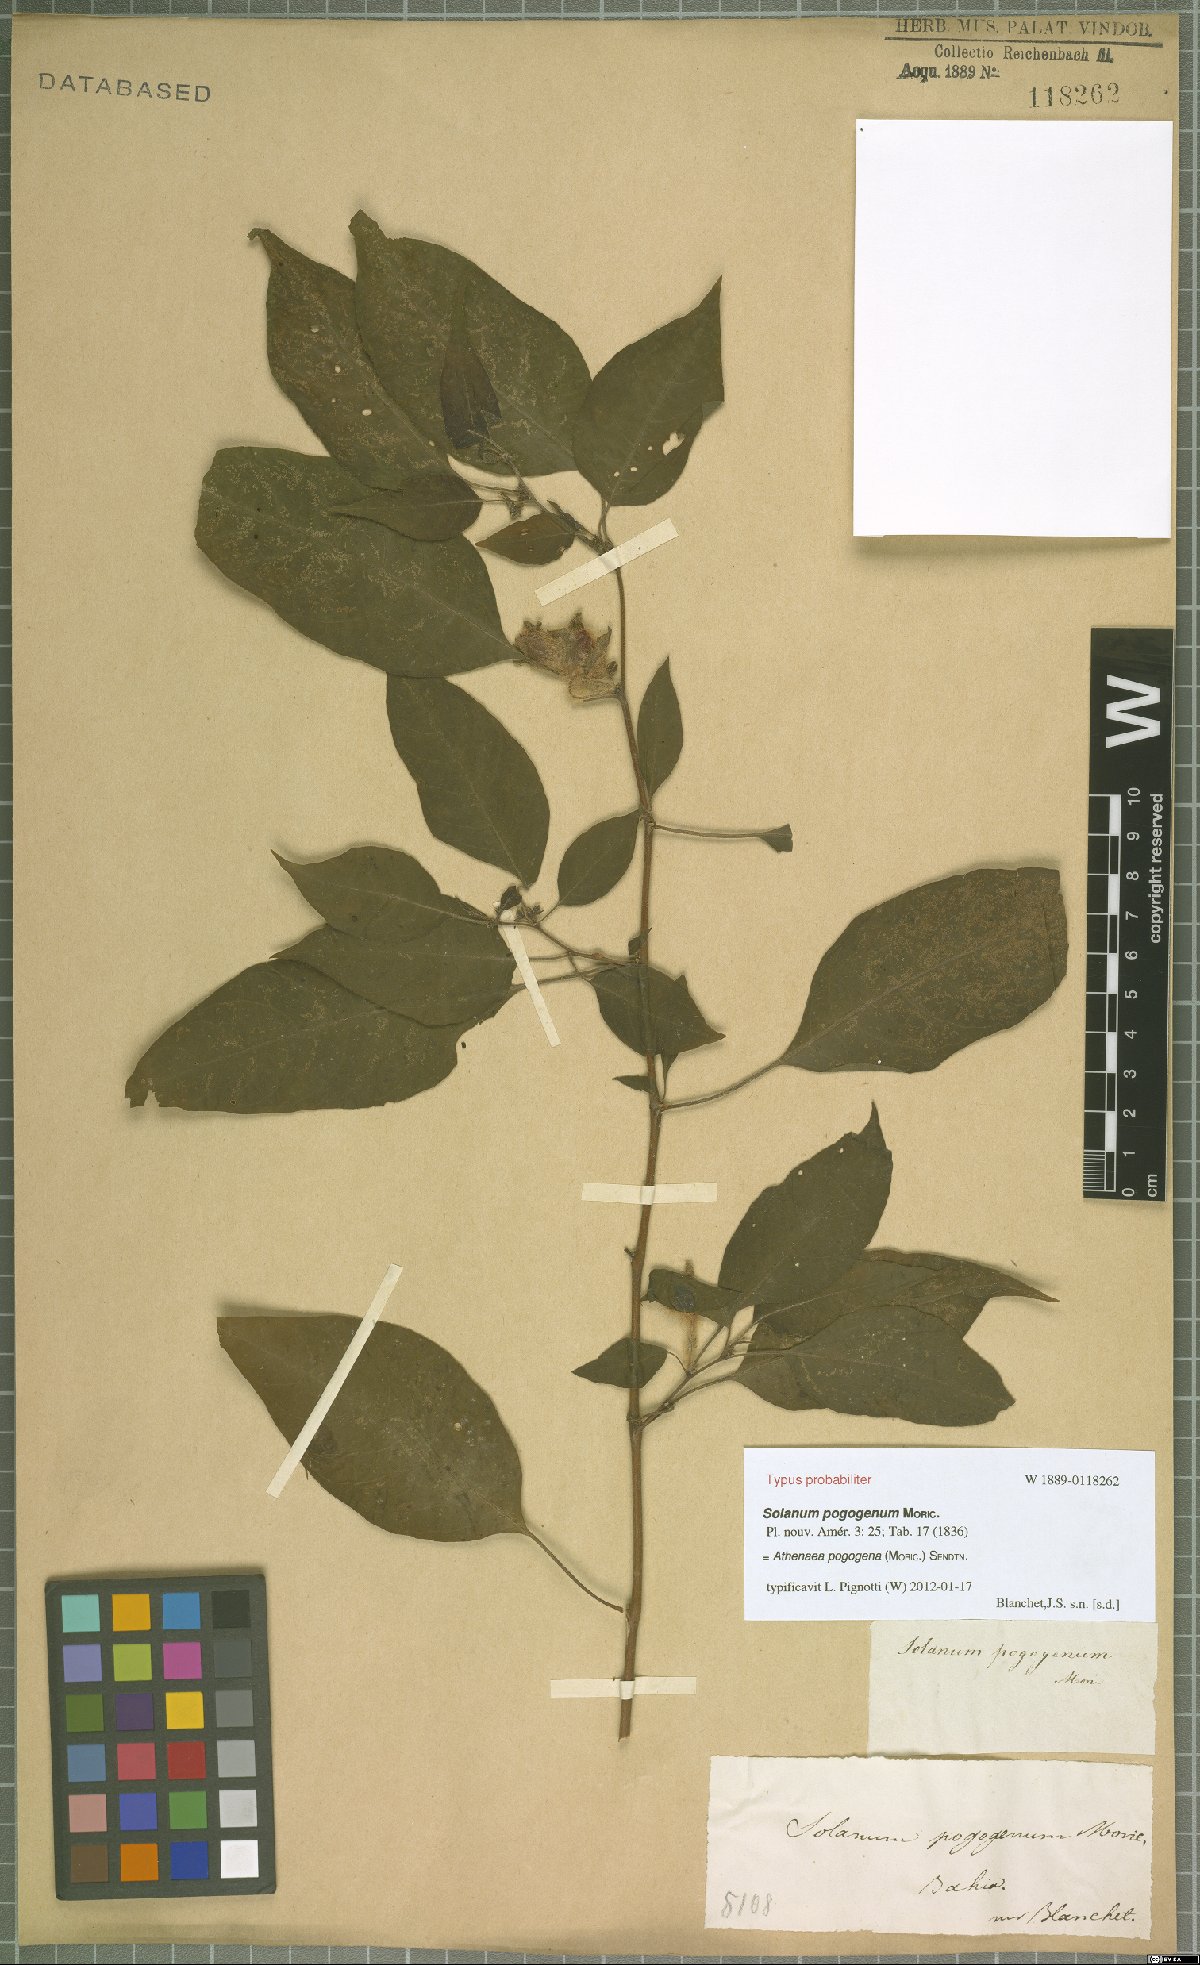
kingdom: Plantae
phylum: Tracheophyta
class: Magnoliopsida
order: Solanales
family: Solanaceae
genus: Athenaea
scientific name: Athenaea pogogena
